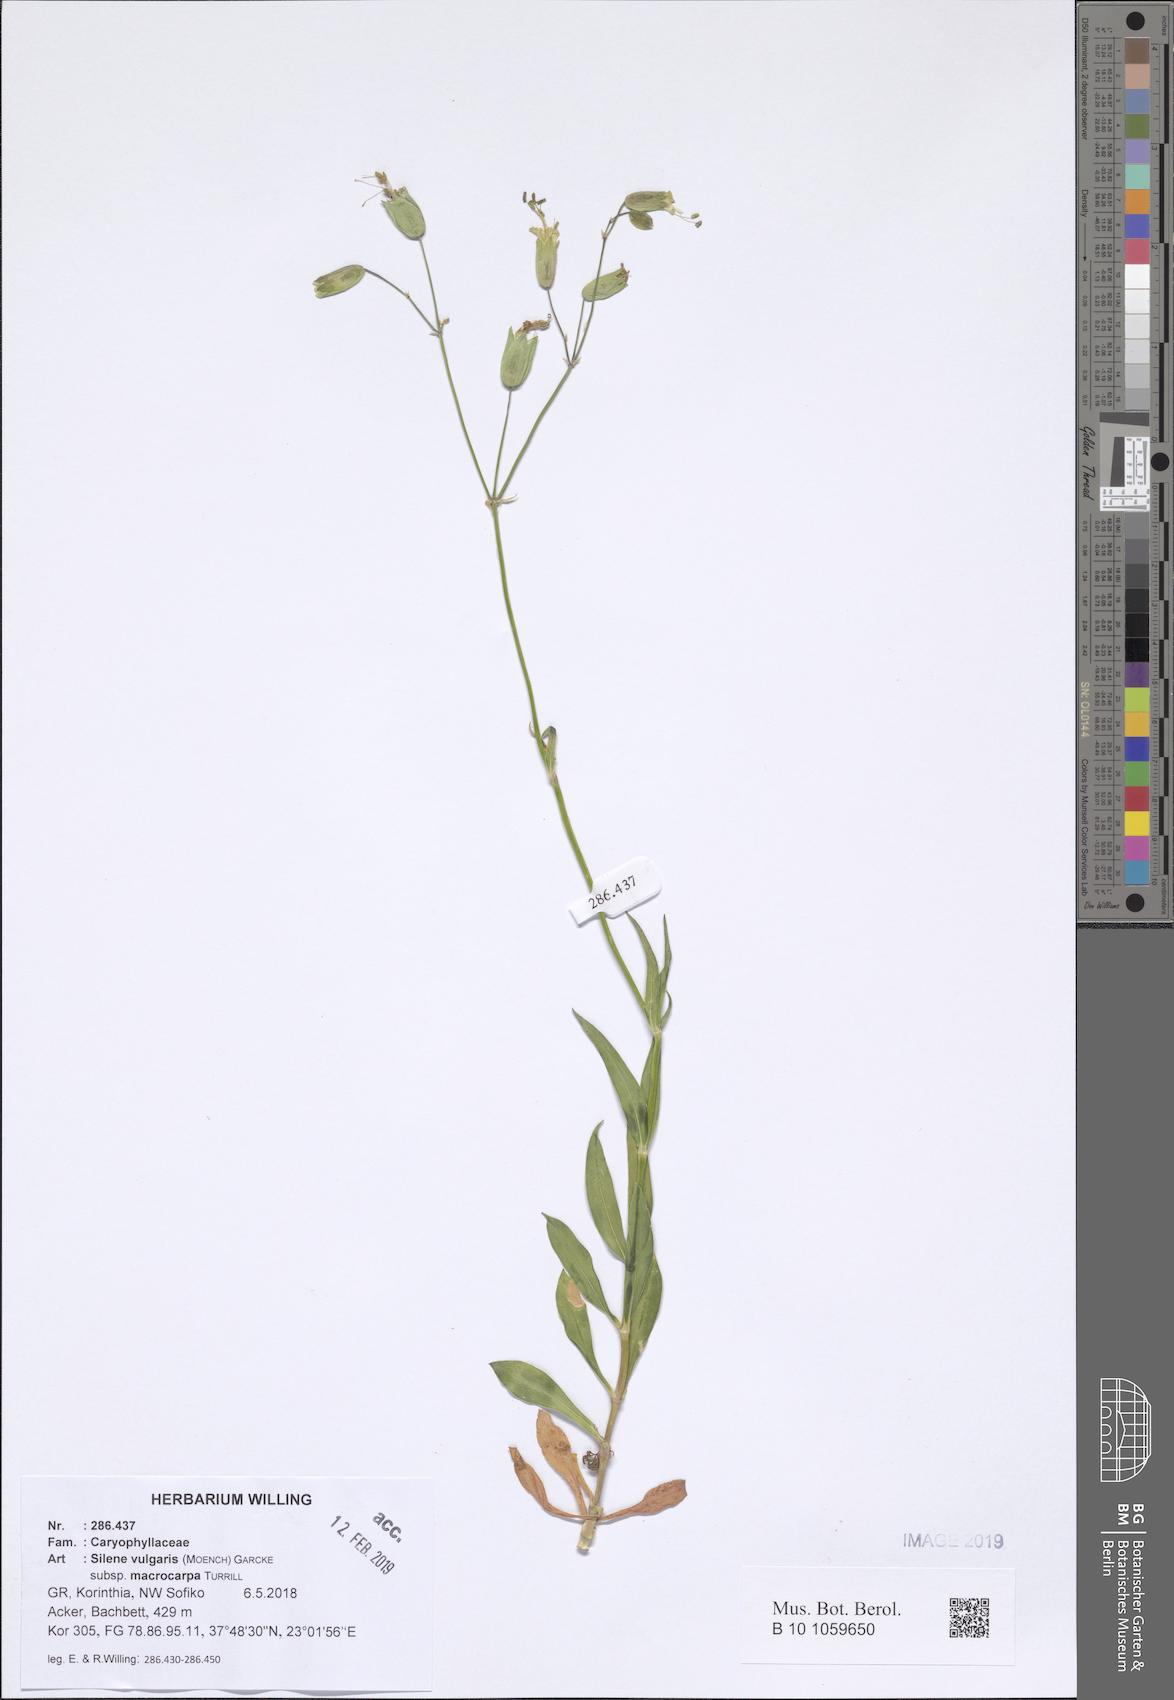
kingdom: Plantae
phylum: Tracheophyta
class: Magnoliopsida
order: Caryophyllales
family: Caryophyllaceae
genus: Silene
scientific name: Silene vulgaris
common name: Bladder campion
